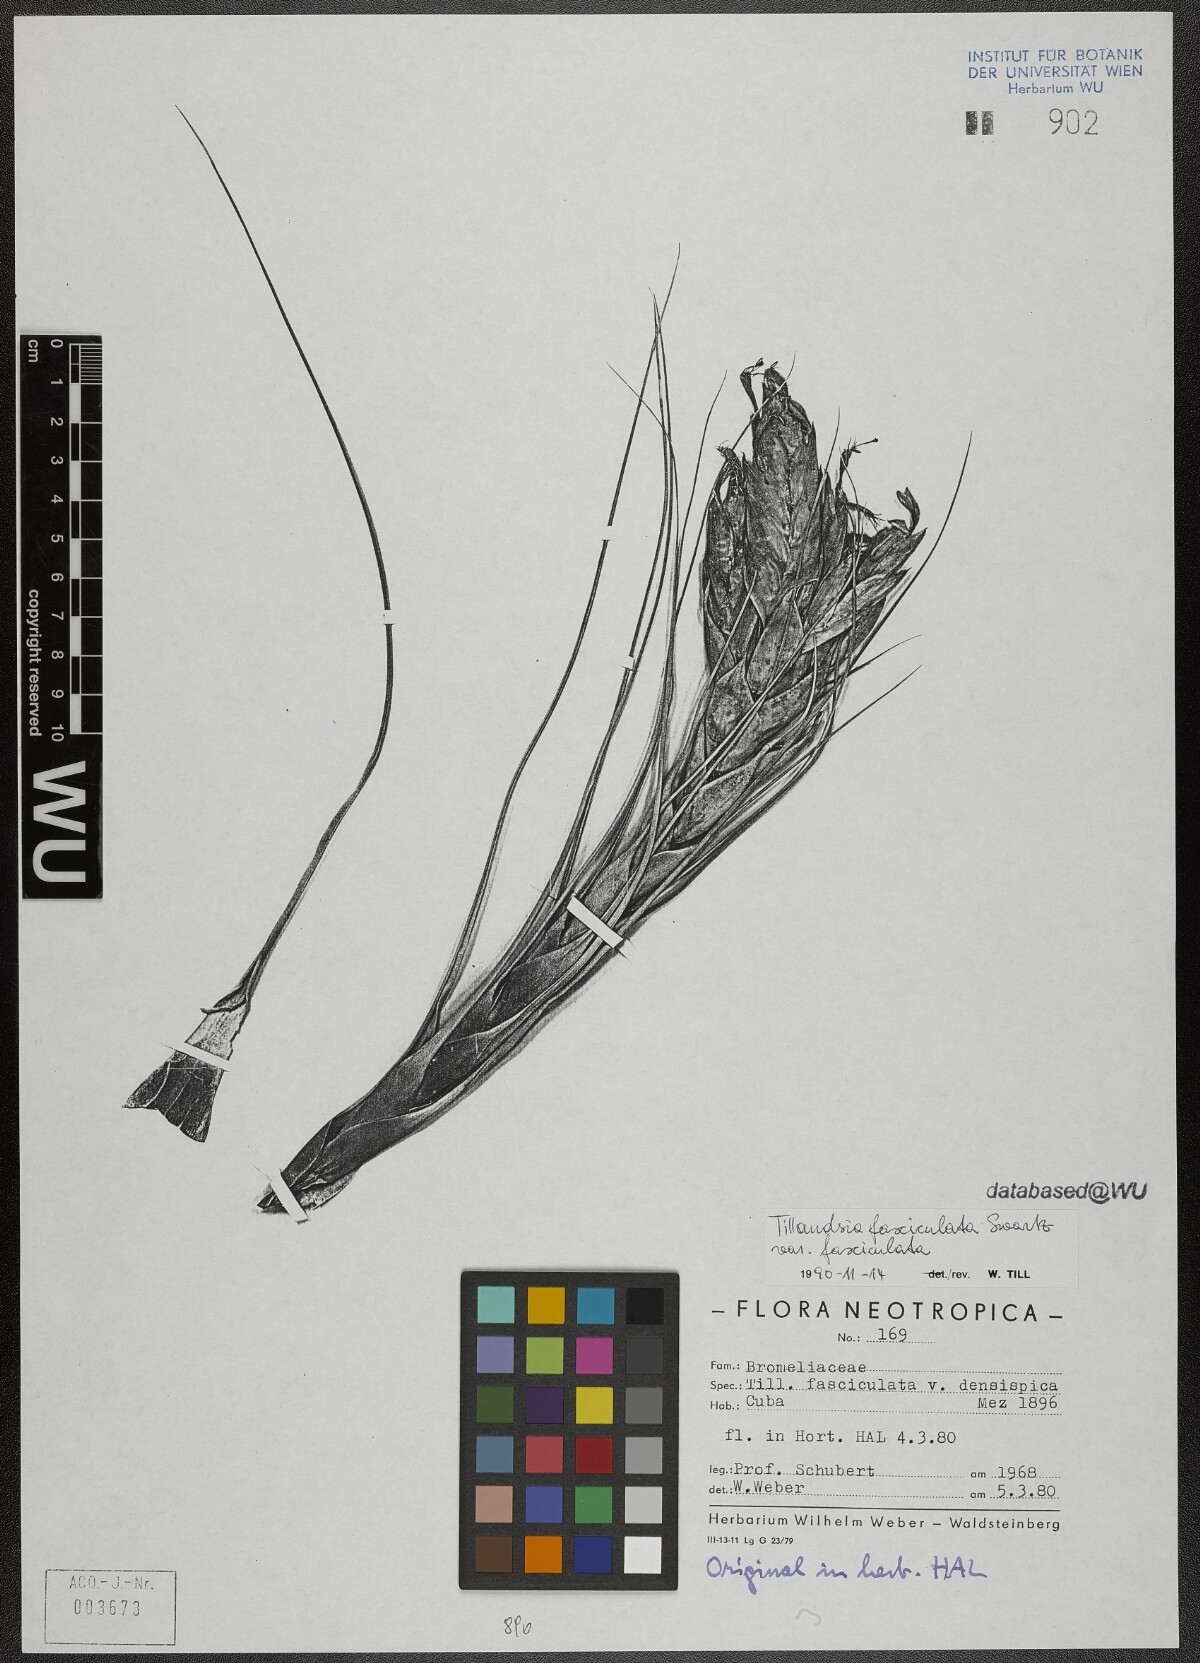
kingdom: Plantae
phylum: Tracheophyta
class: Liliopsida
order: Poales
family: Bromeliaceae
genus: Tillandsia
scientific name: Tillandsia fasciculata
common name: Giant airplant
